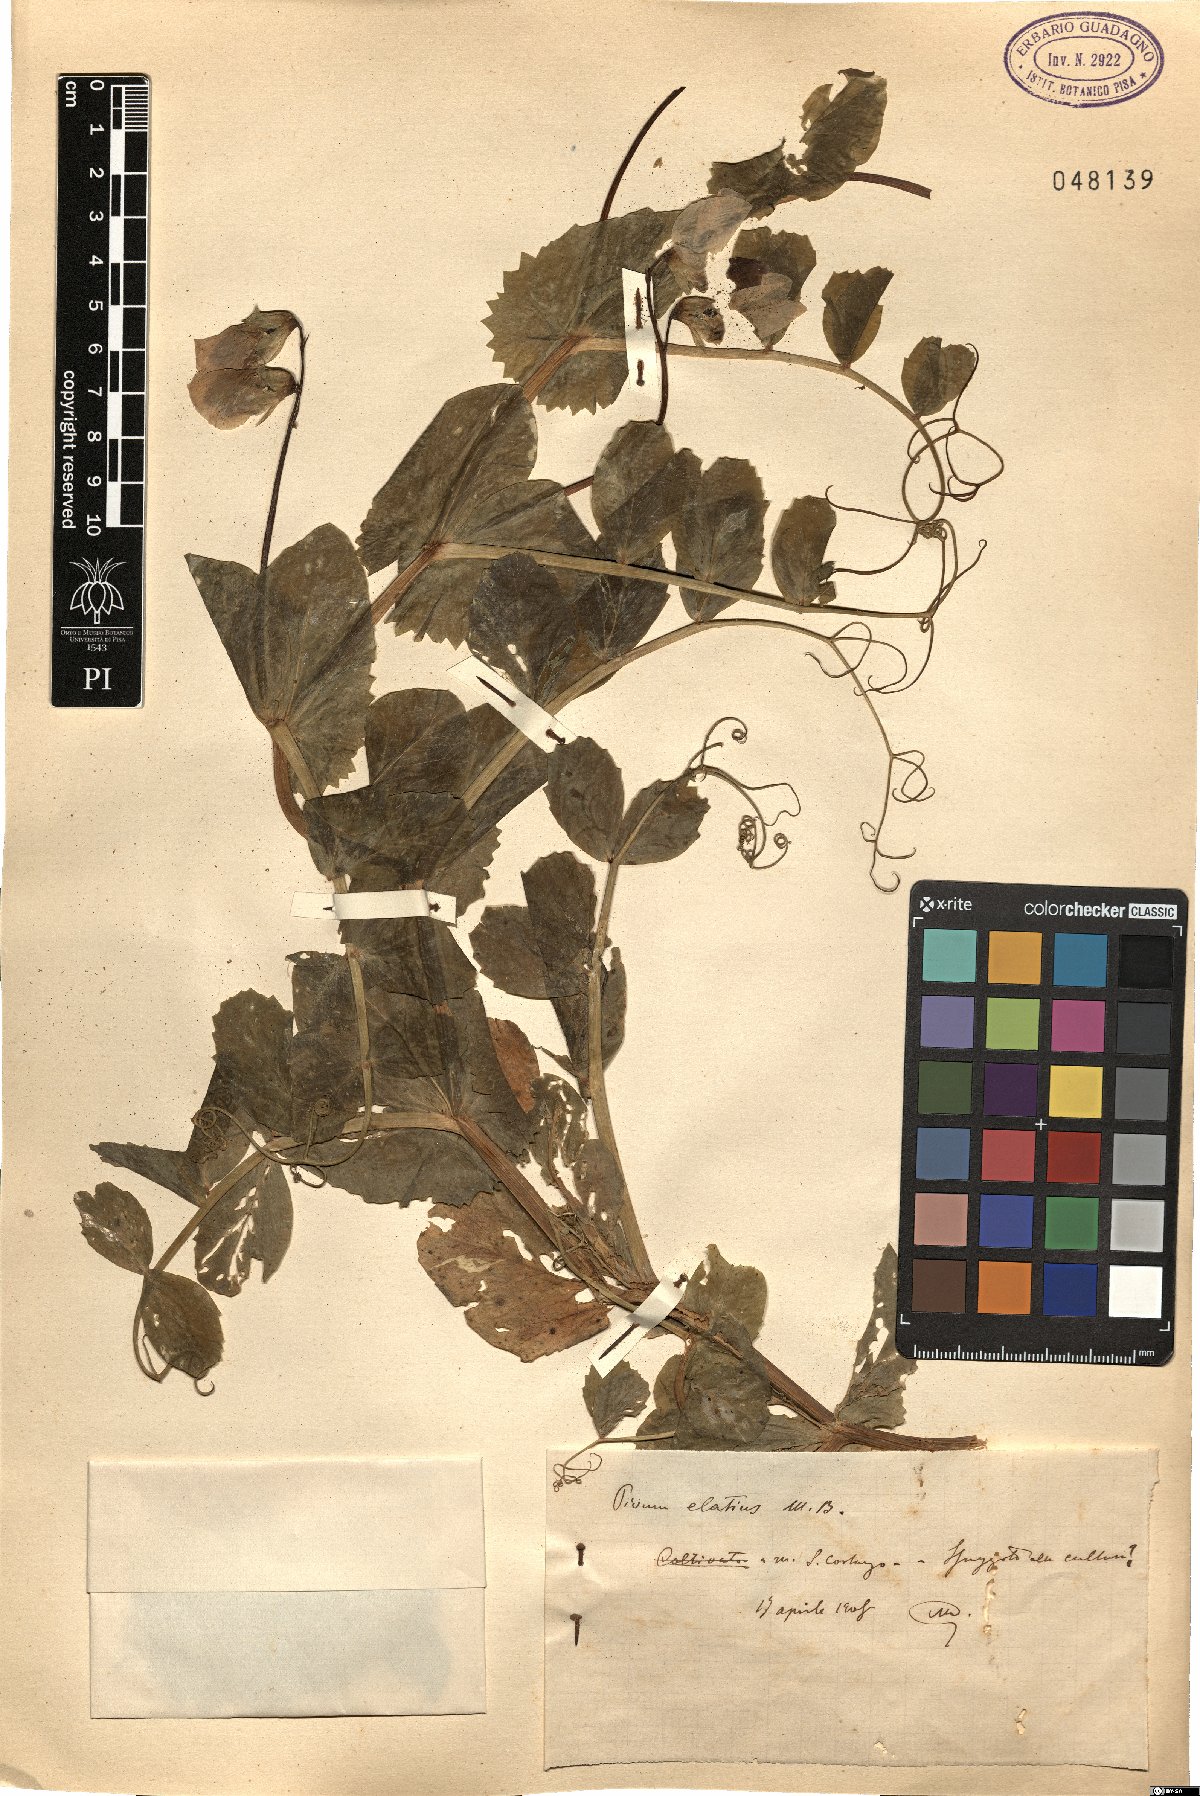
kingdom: Plantae
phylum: Tracheophyta
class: Magnoliopsida
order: Fabales
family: Fabaceae
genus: Lathyrus
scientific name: Lathyrus oleraceus
